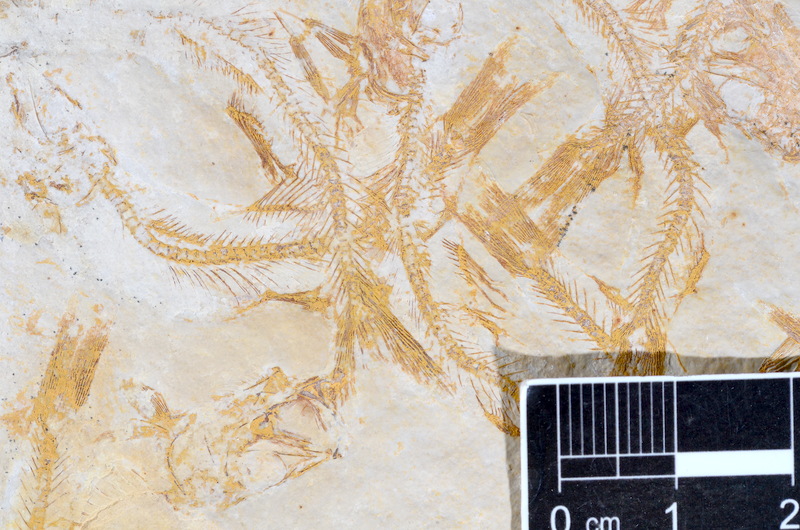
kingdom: Animalia
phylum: Chordata
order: Salmoniformes
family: Orthogonikleithridae
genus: Leptolepides
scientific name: Leptolepides sprattiformis
